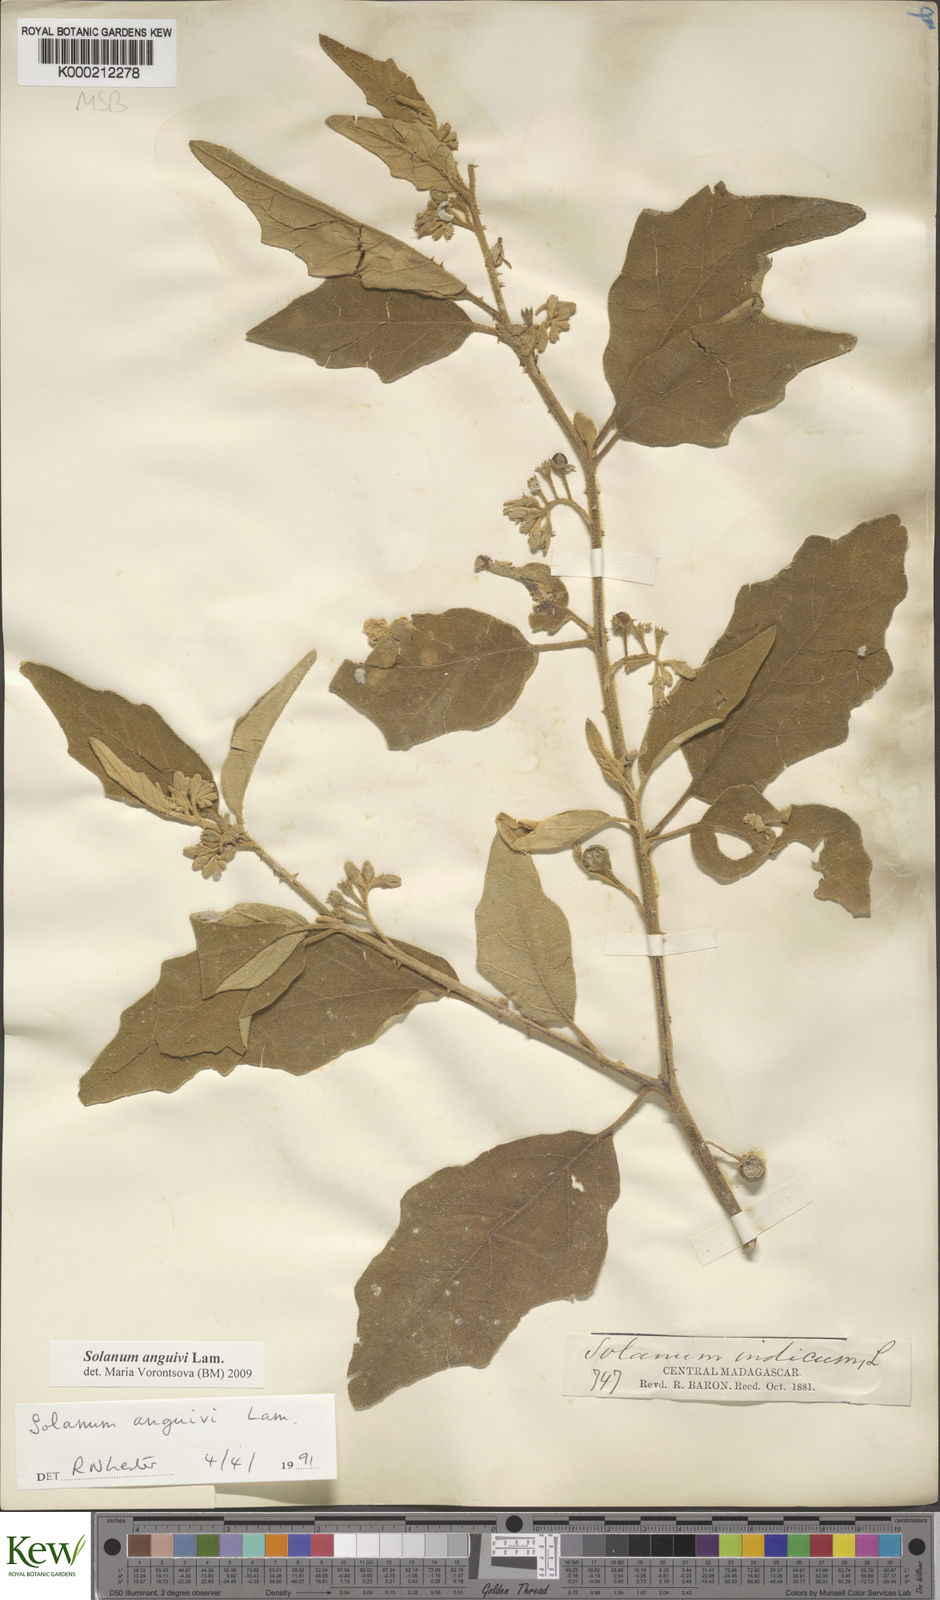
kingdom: Plantae
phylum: Tracheophyta
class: Magnoliopsida
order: Solanales
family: Solanaceae
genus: Solanum
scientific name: Solanum anguivi
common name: Forest bitterberry
